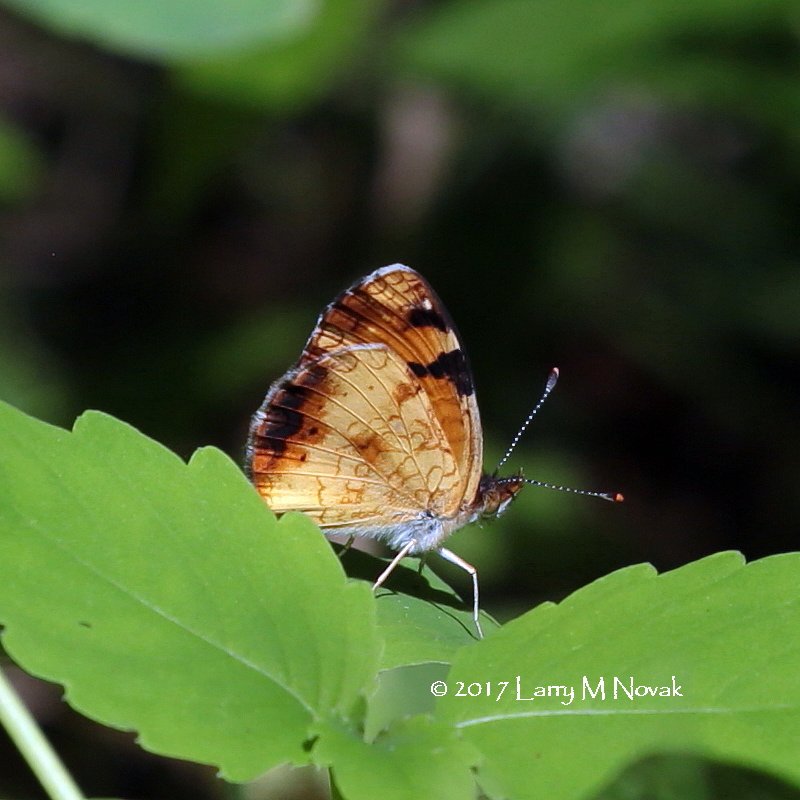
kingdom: Animalia
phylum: Arthropoda
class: Insecta
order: Lepidoptera
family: Nymphalidae
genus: Phyciodes
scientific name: Phyciodes tharos
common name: Northern Crescent
